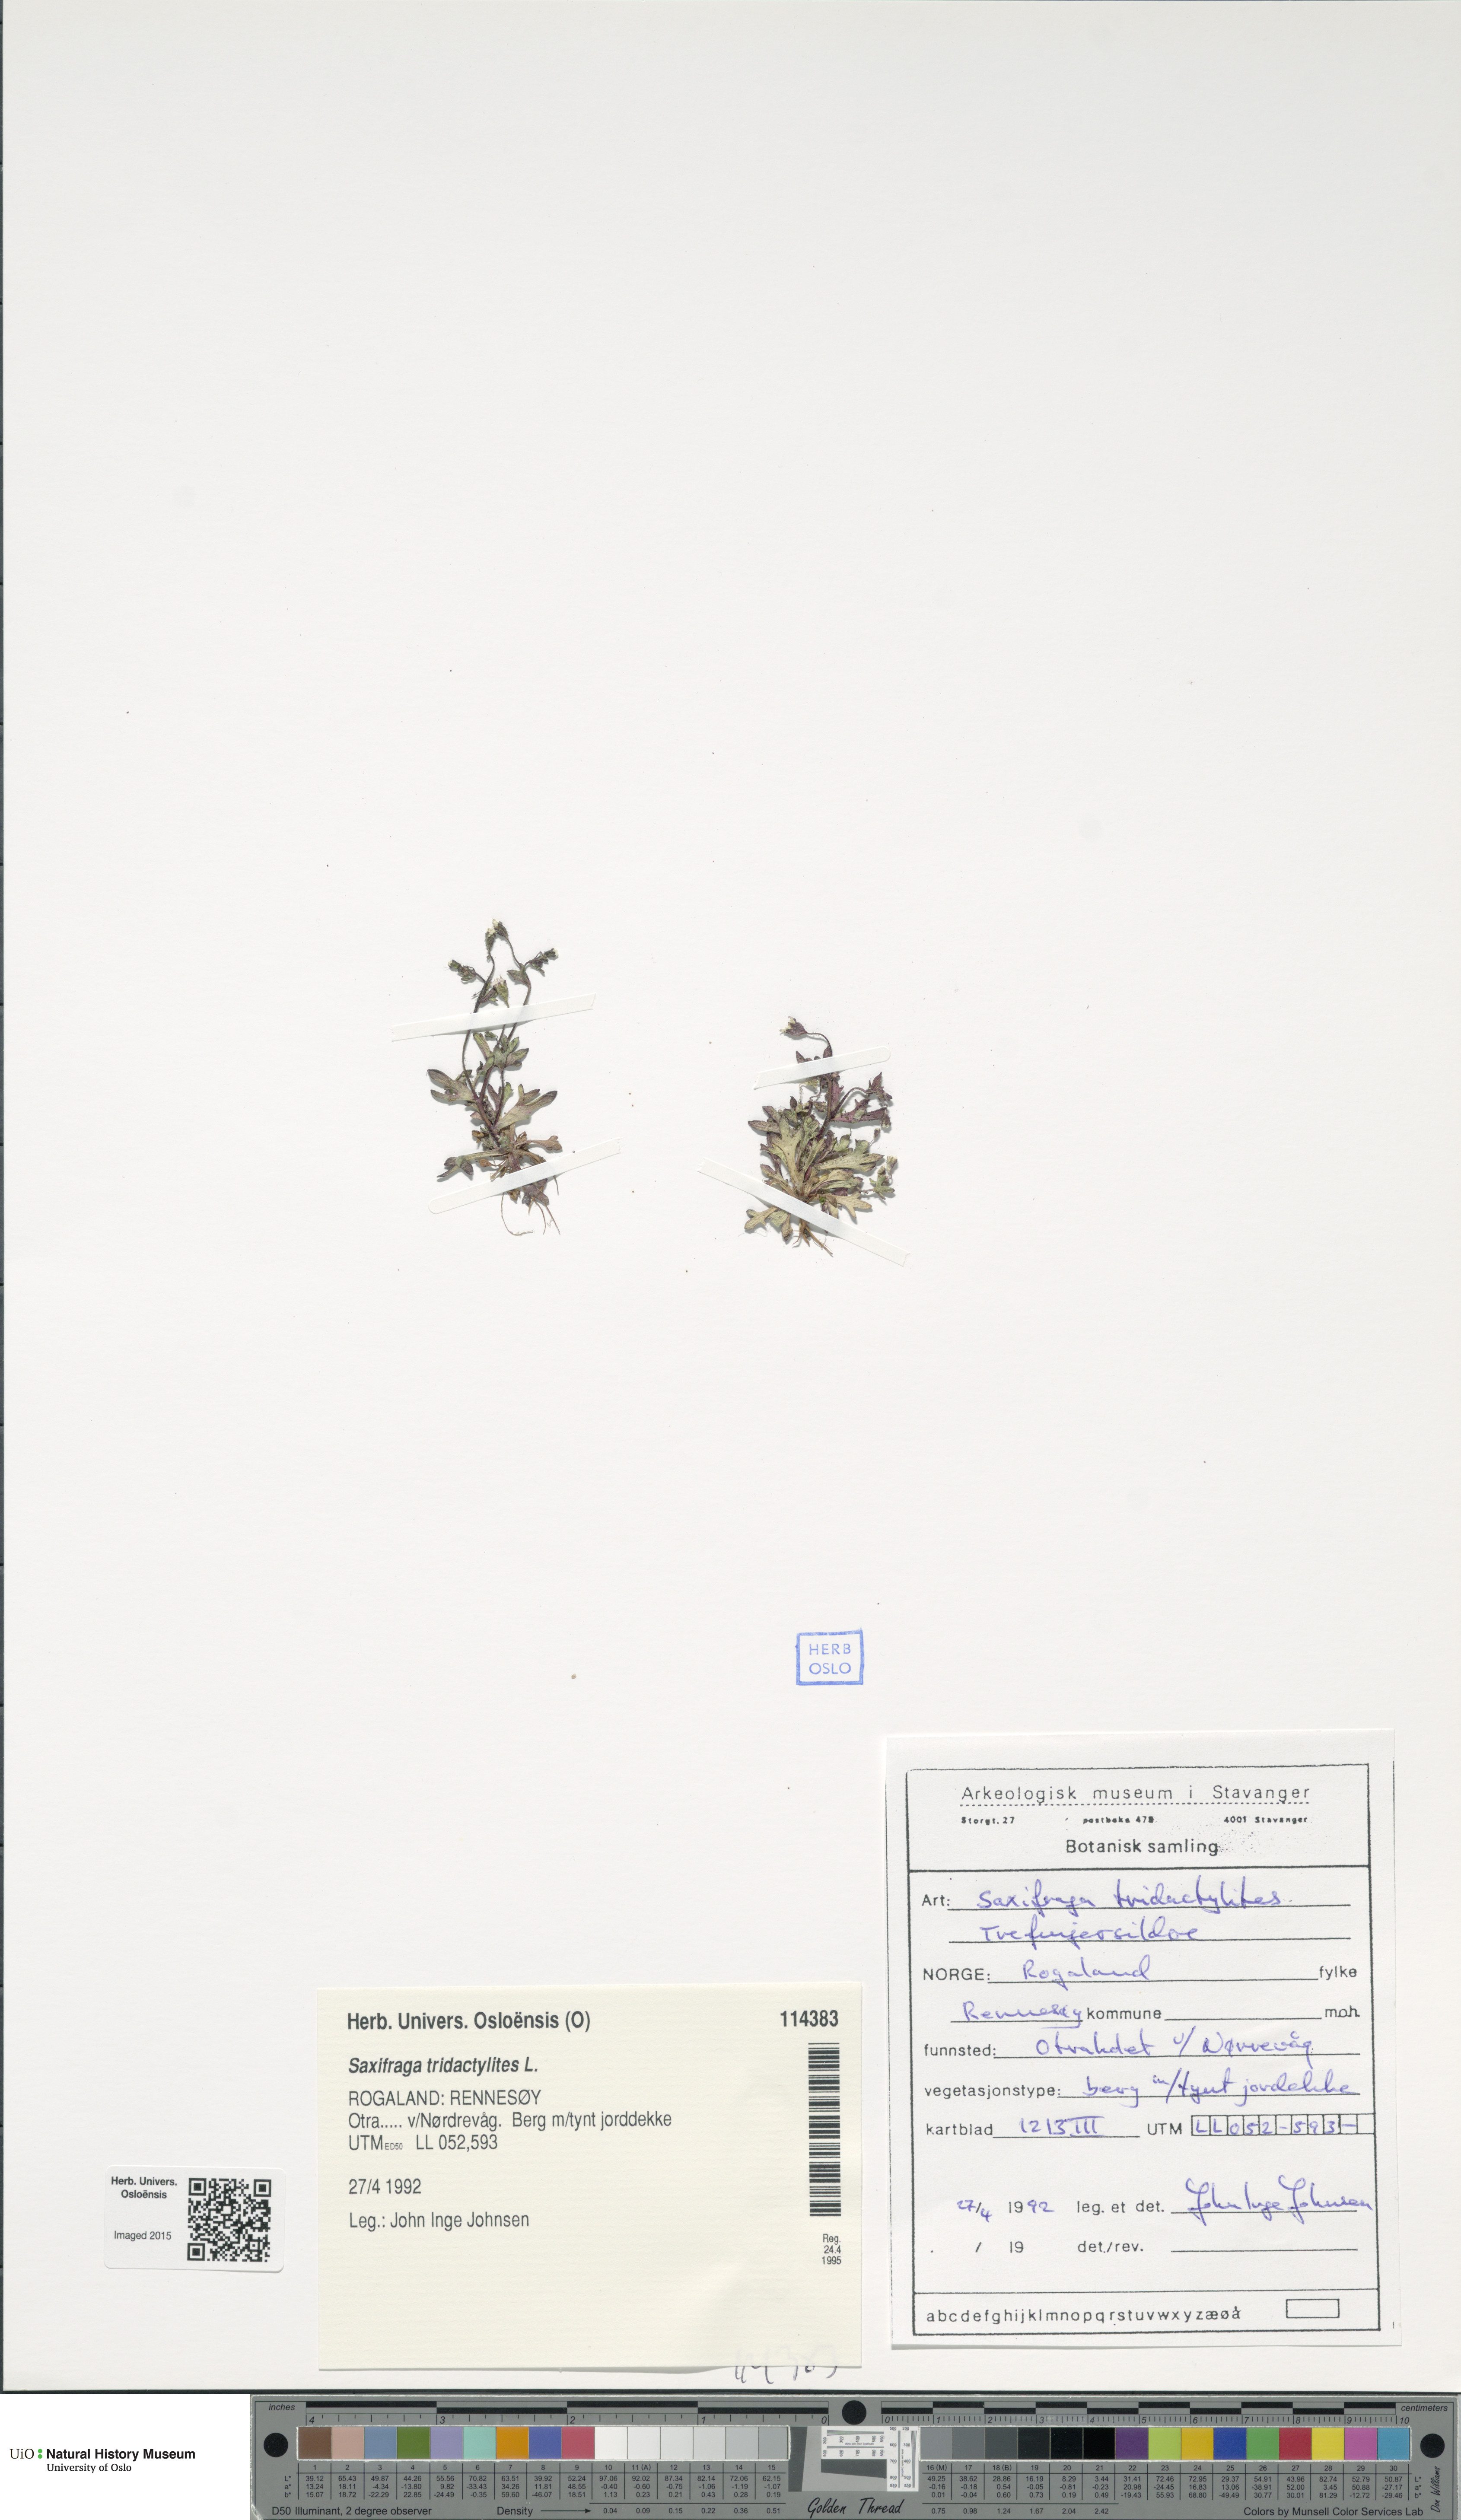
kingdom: Plantae
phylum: Tracheophyta
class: Magnoliopsida
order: Saxifragales
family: Saxifragaceae
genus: Saxifraga
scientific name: Saxifraga tridactylites
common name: Rue-leaved saxifrage
